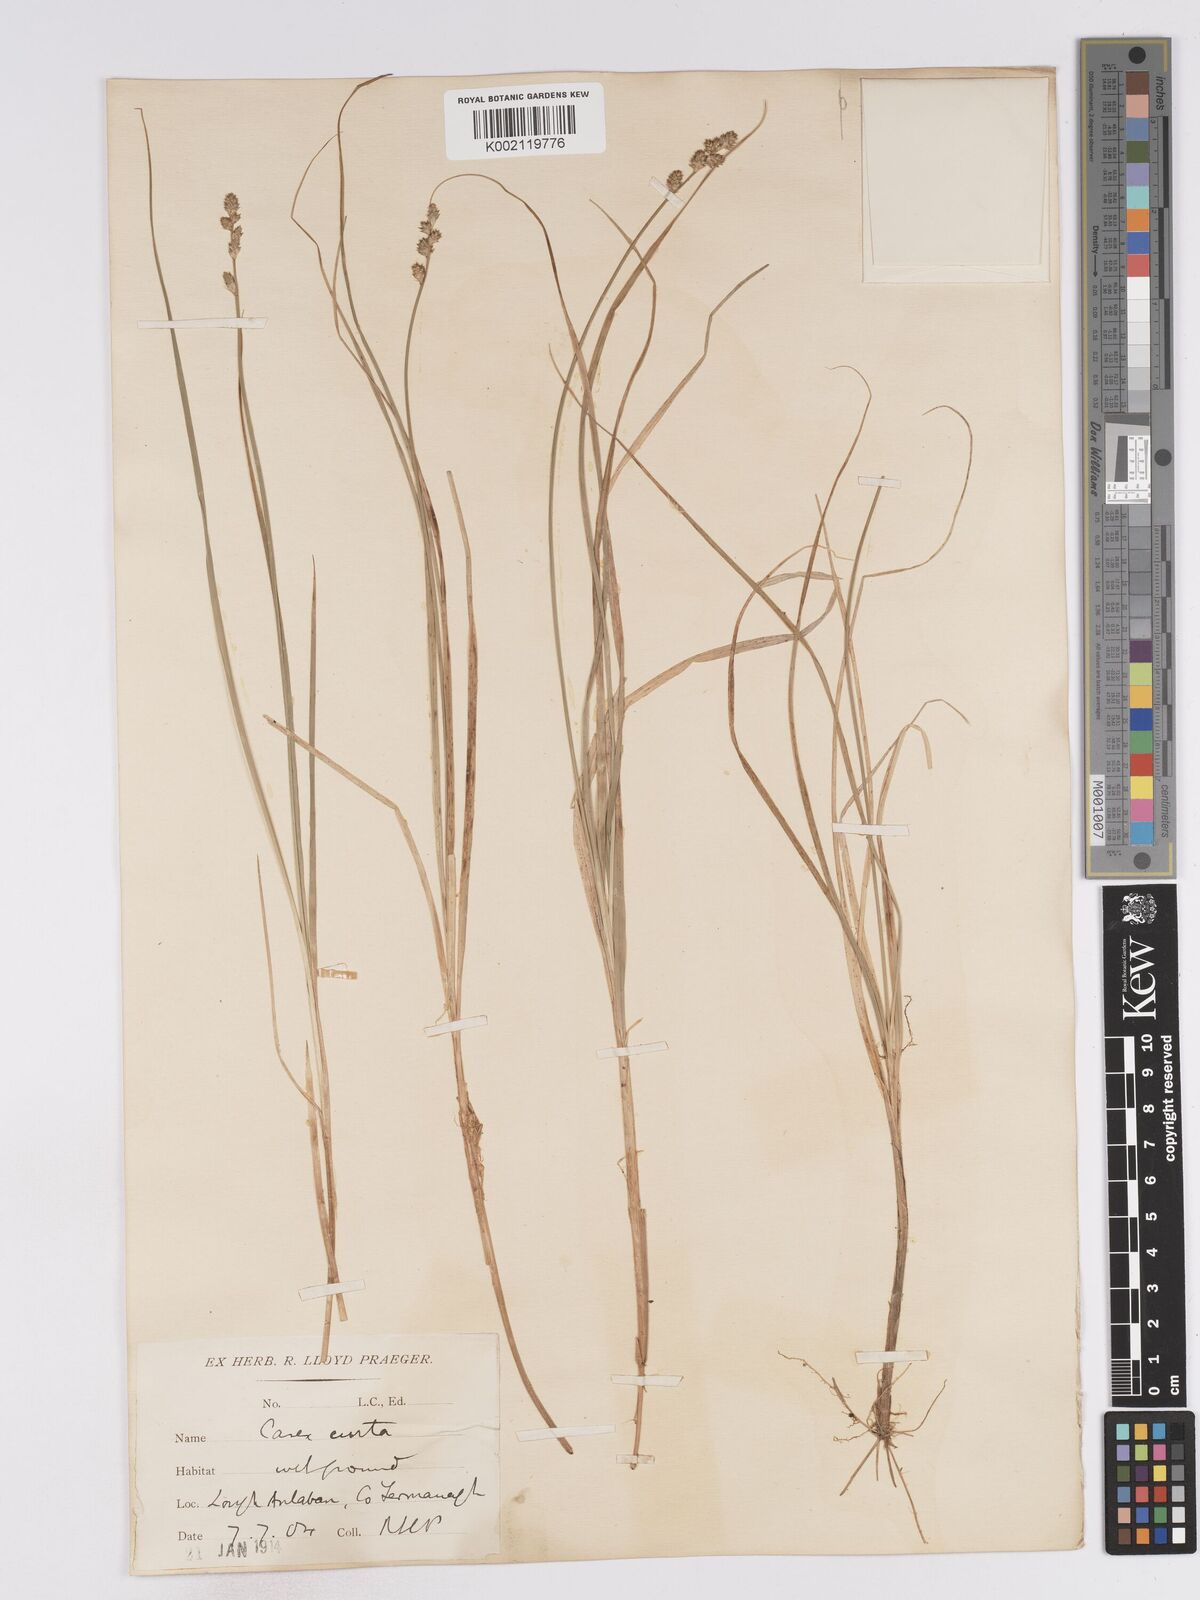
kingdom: Plantae
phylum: Tracheophyta
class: Liliopsida
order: Poales
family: Cyperaceae
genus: Carex
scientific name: Carex curta
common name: White sedge
